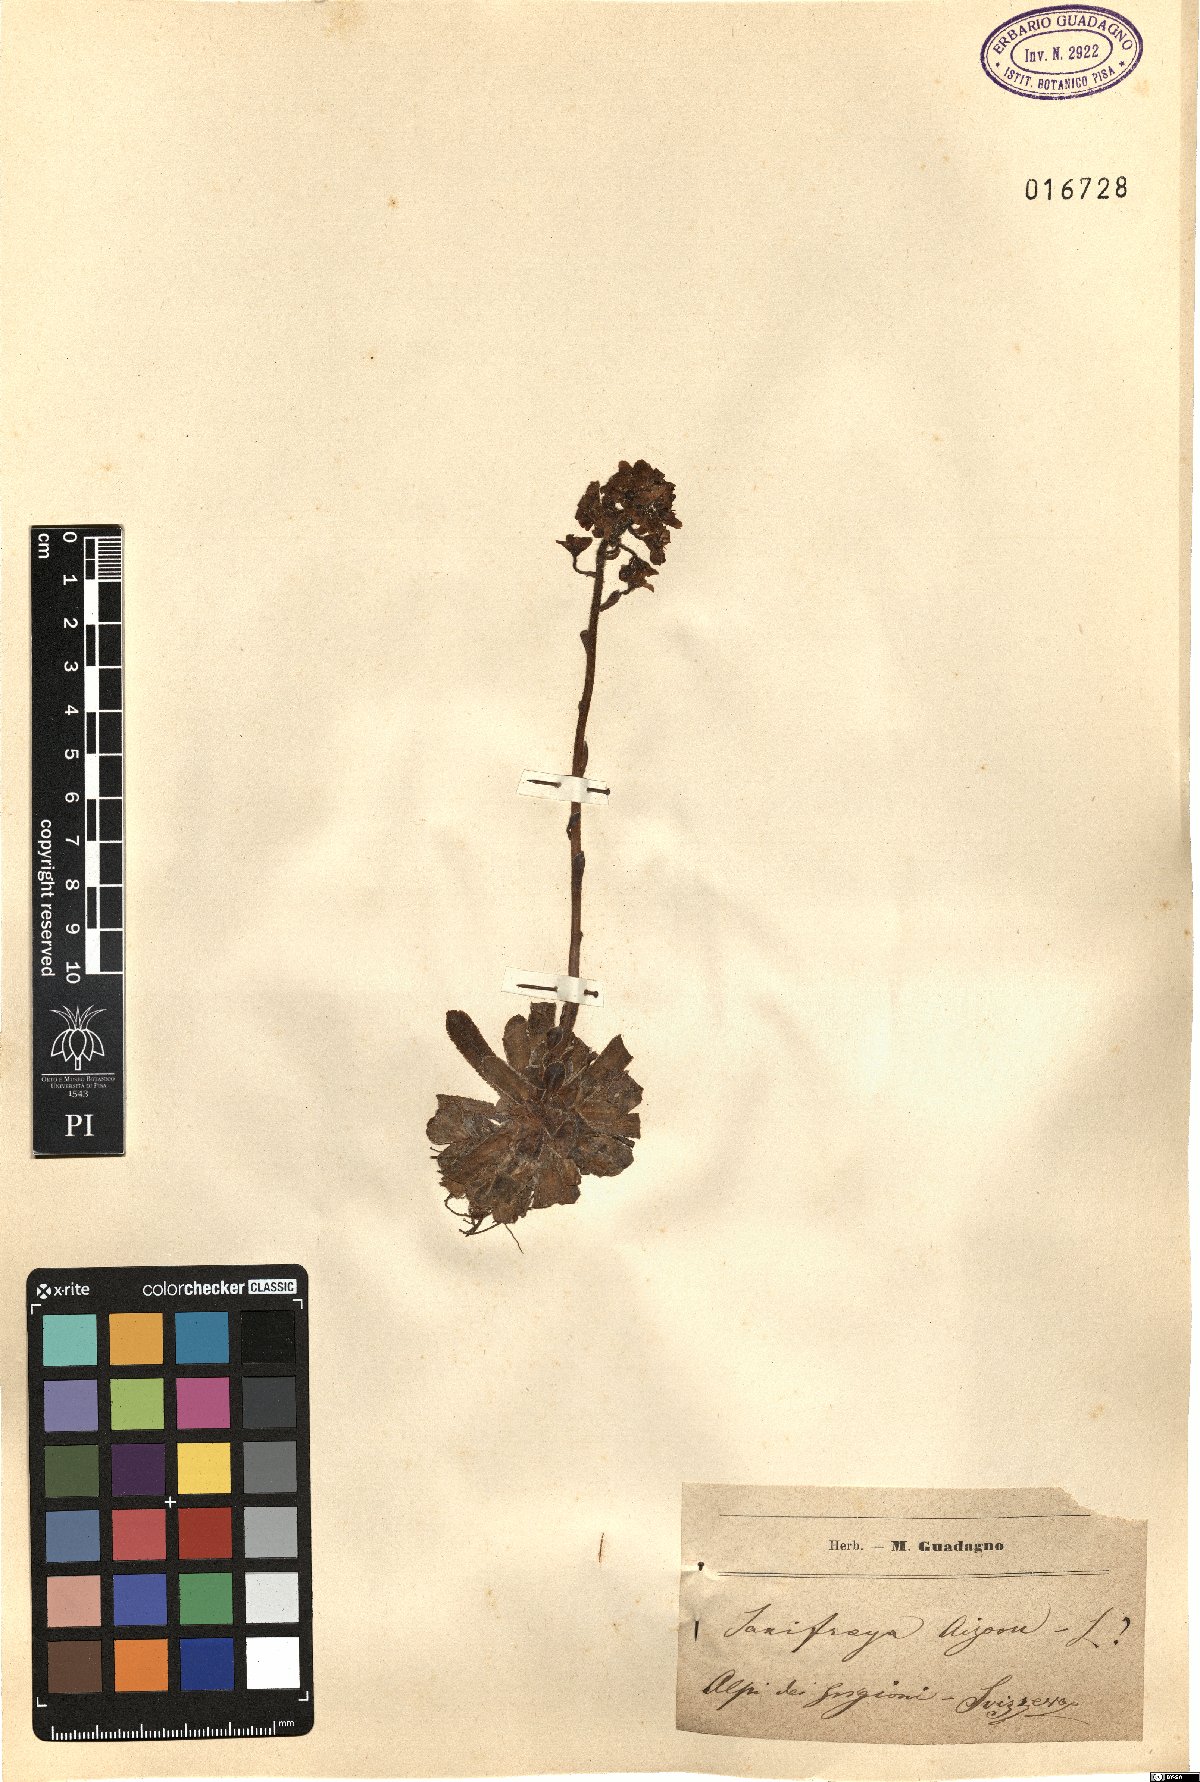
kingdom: Plantae
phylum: Tracheophyta
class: Magnoliopsida
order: Saxifragales
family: Saxifragaceae
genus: Saxifraga
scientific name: Saxifraga paniculata
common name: Livelong saxifrage
